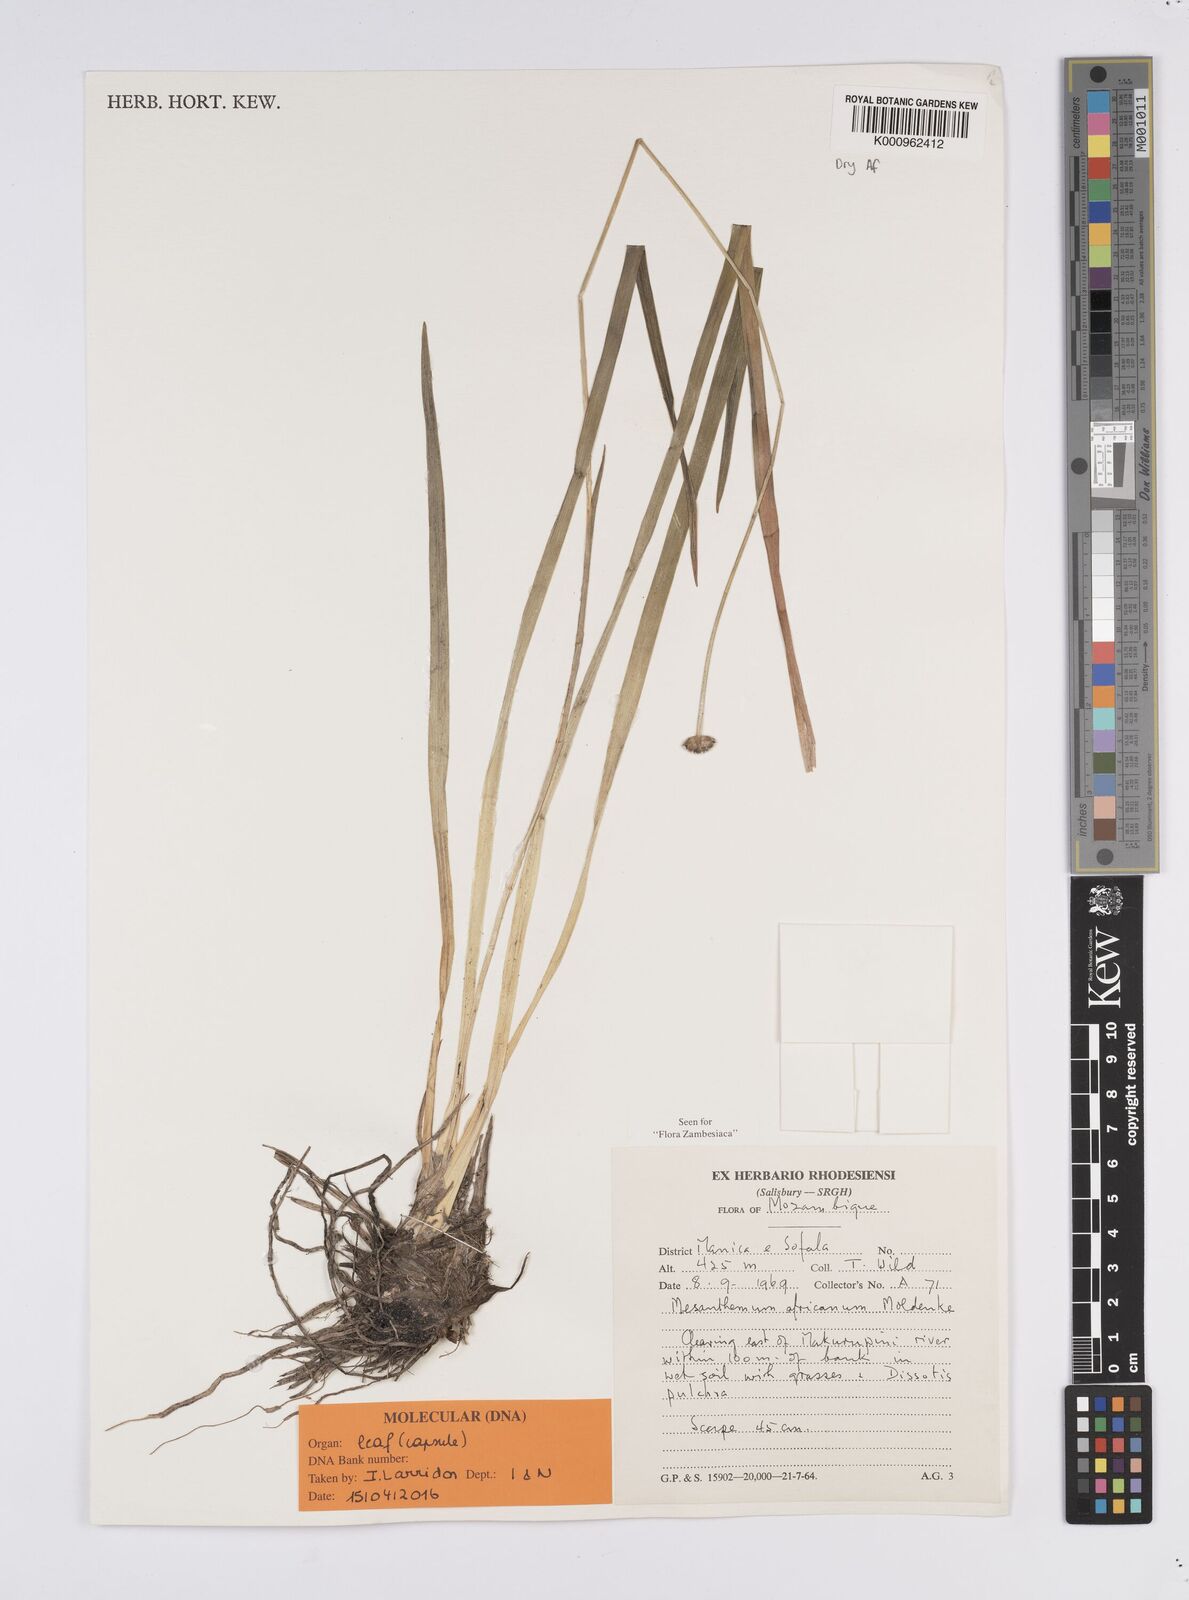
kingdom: Plantae
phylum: Tracheophyta
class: Liliopsida
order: Poales
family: Eriocaulaceae
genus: Mesanthemum
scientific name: Mesanthemum africanum
